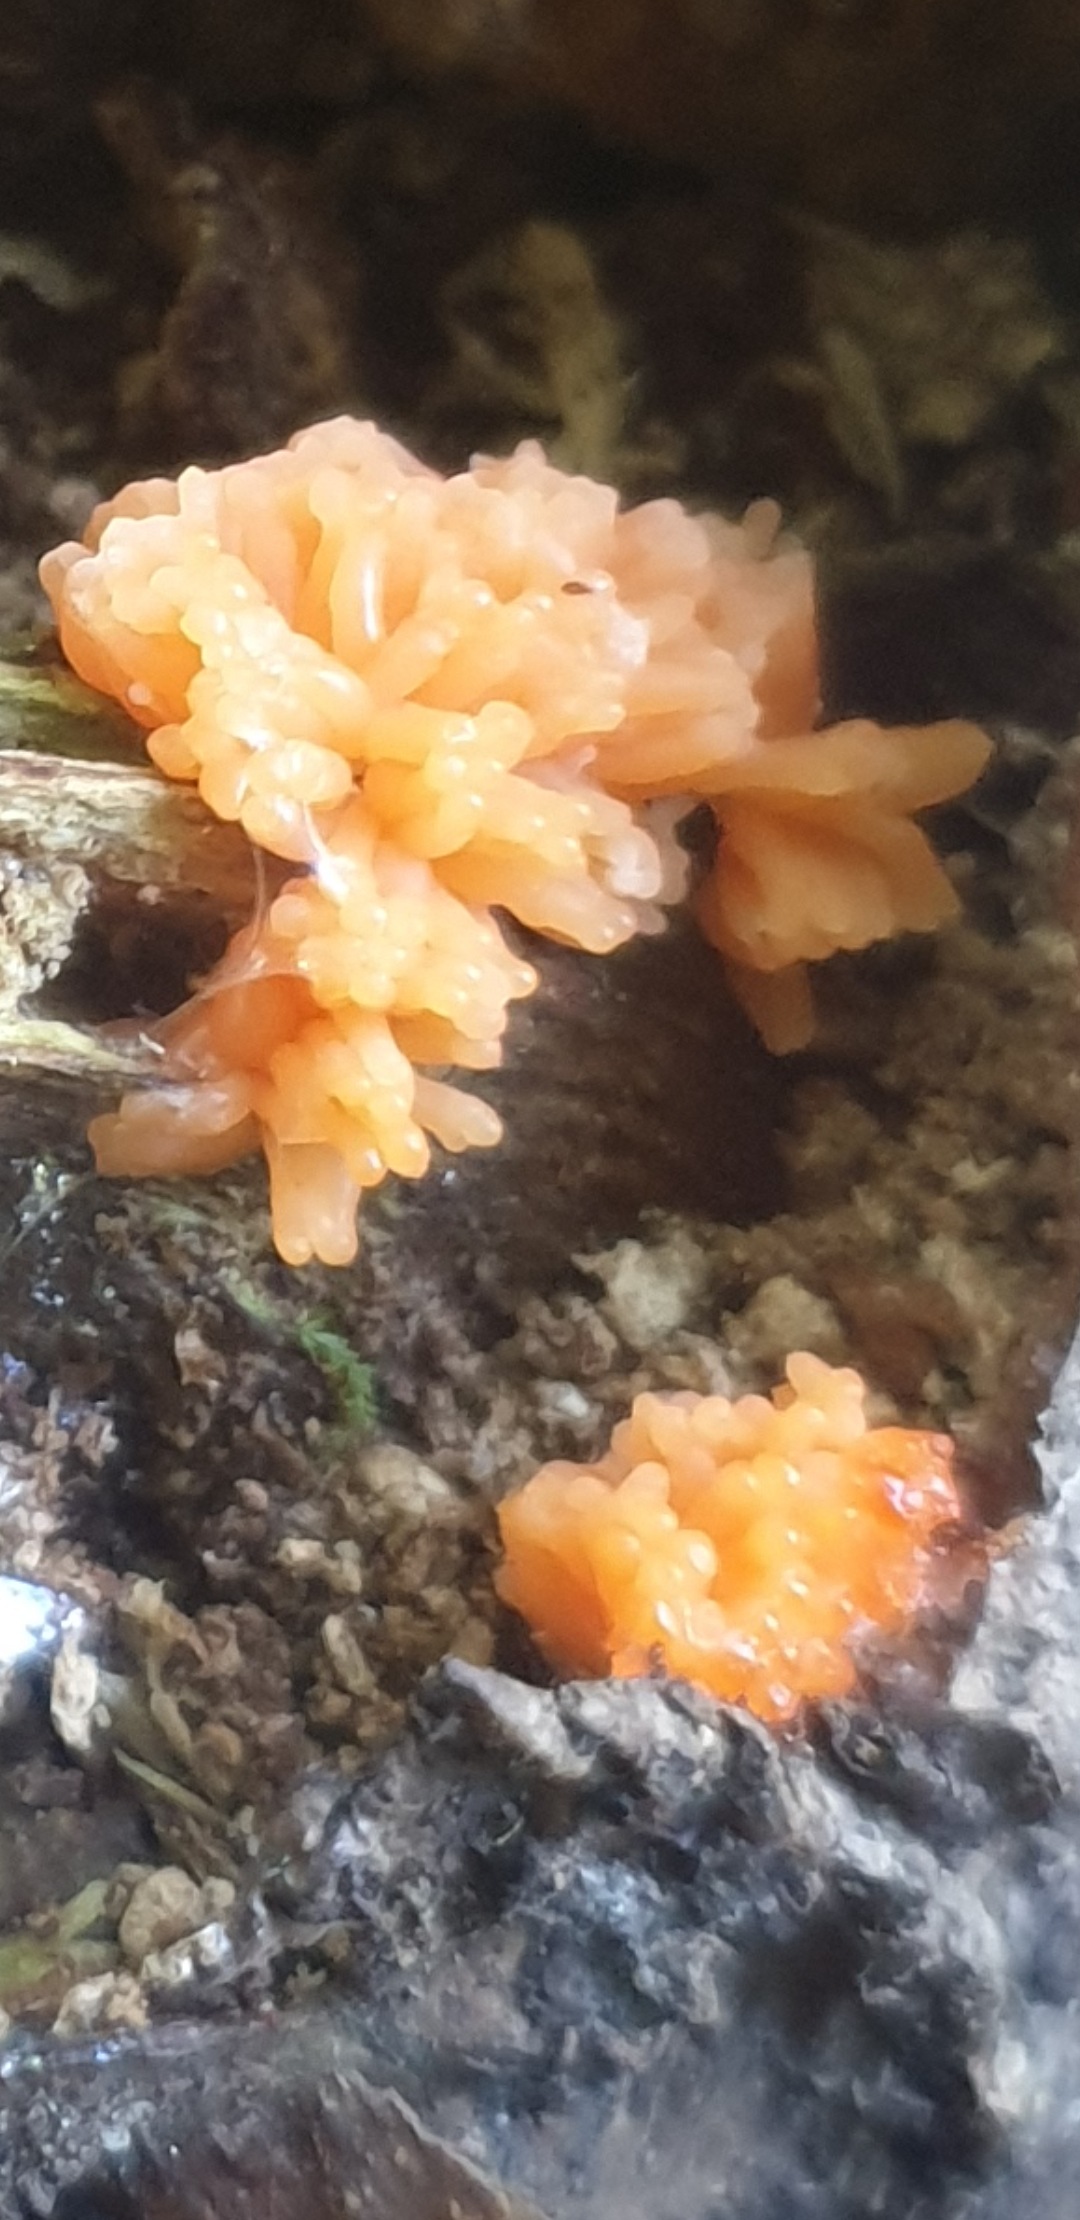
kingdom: Protozoa
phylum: Mycetozoa
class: Myxomycetes
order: Cribrariales
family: Tubiferaceae
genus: Tubifera
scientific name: Tubifera ferruginosa
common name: kanel-støvrør
